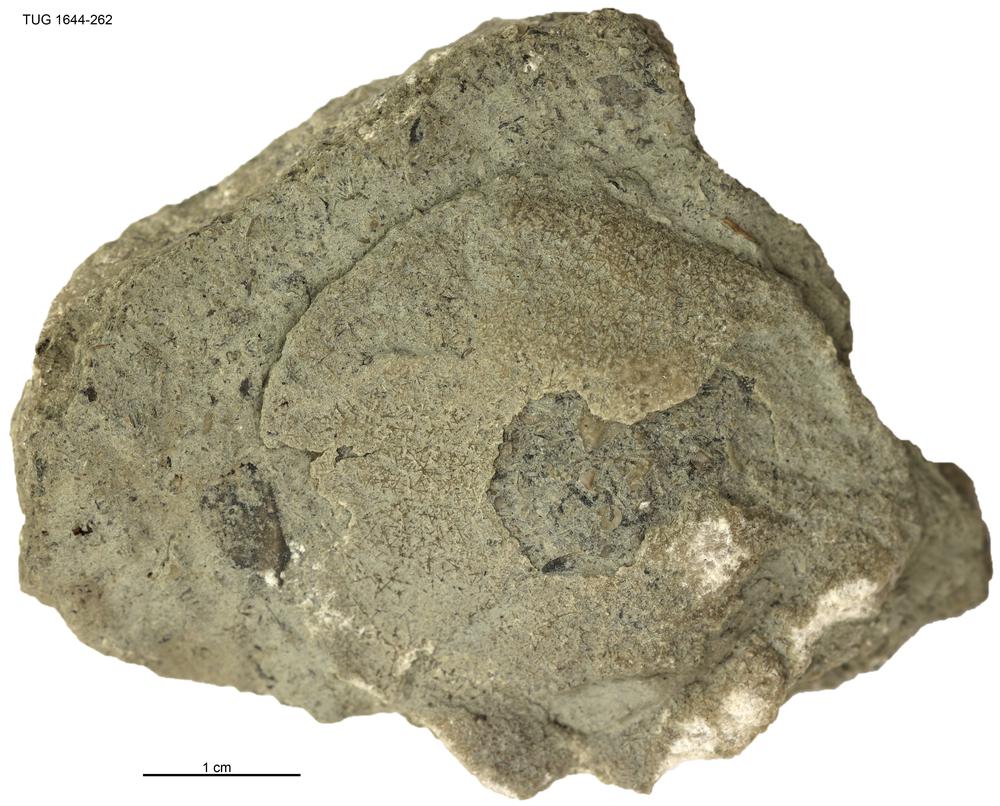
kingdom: Animalia
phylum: Porifera
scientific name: Porifera
